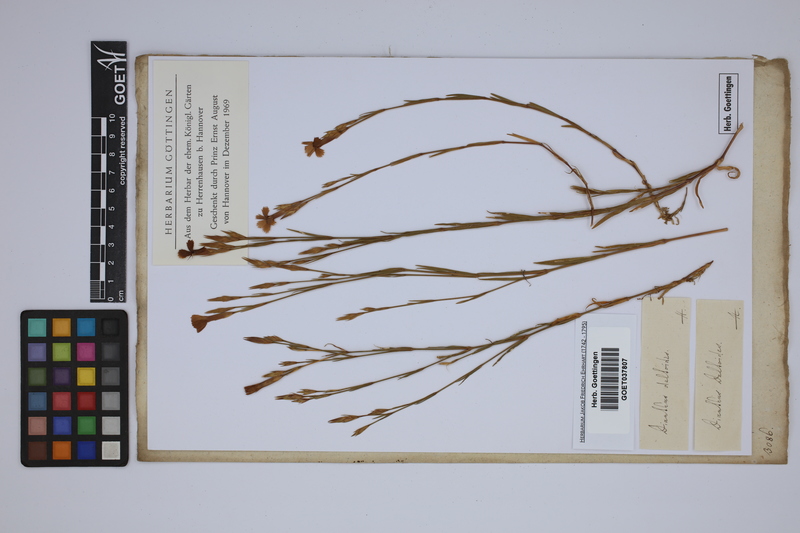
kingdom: Plantae
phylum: Tracheophyta
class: Magnoliopsida
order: Caryophyllales
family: Caryophyllaceae
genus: Dianthus
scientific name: Dianthus deltoides
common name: Maiden pink
